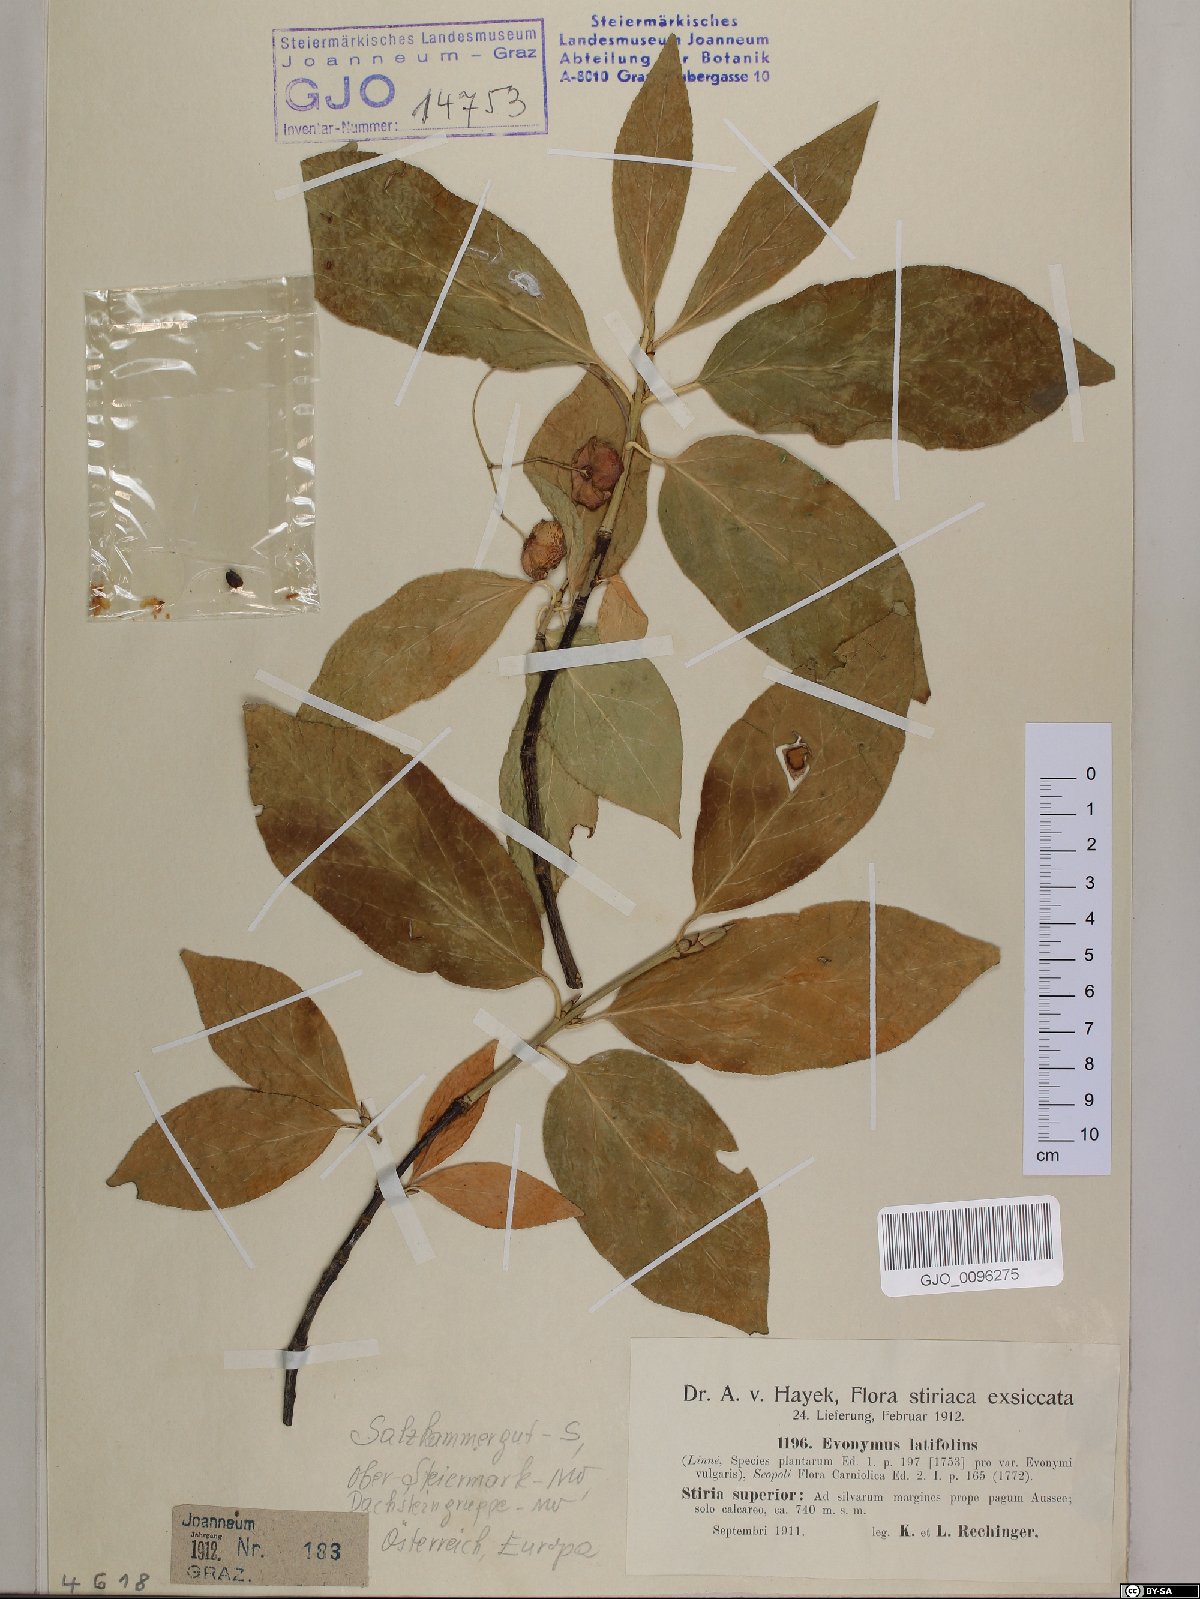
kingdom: Plantae
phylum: Tracheophyta
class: Magnoliopsida
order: Celastrales
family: Celastraceae
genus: Euonymus
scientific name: Euonymus latifolius
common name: Large-leaved spindle
